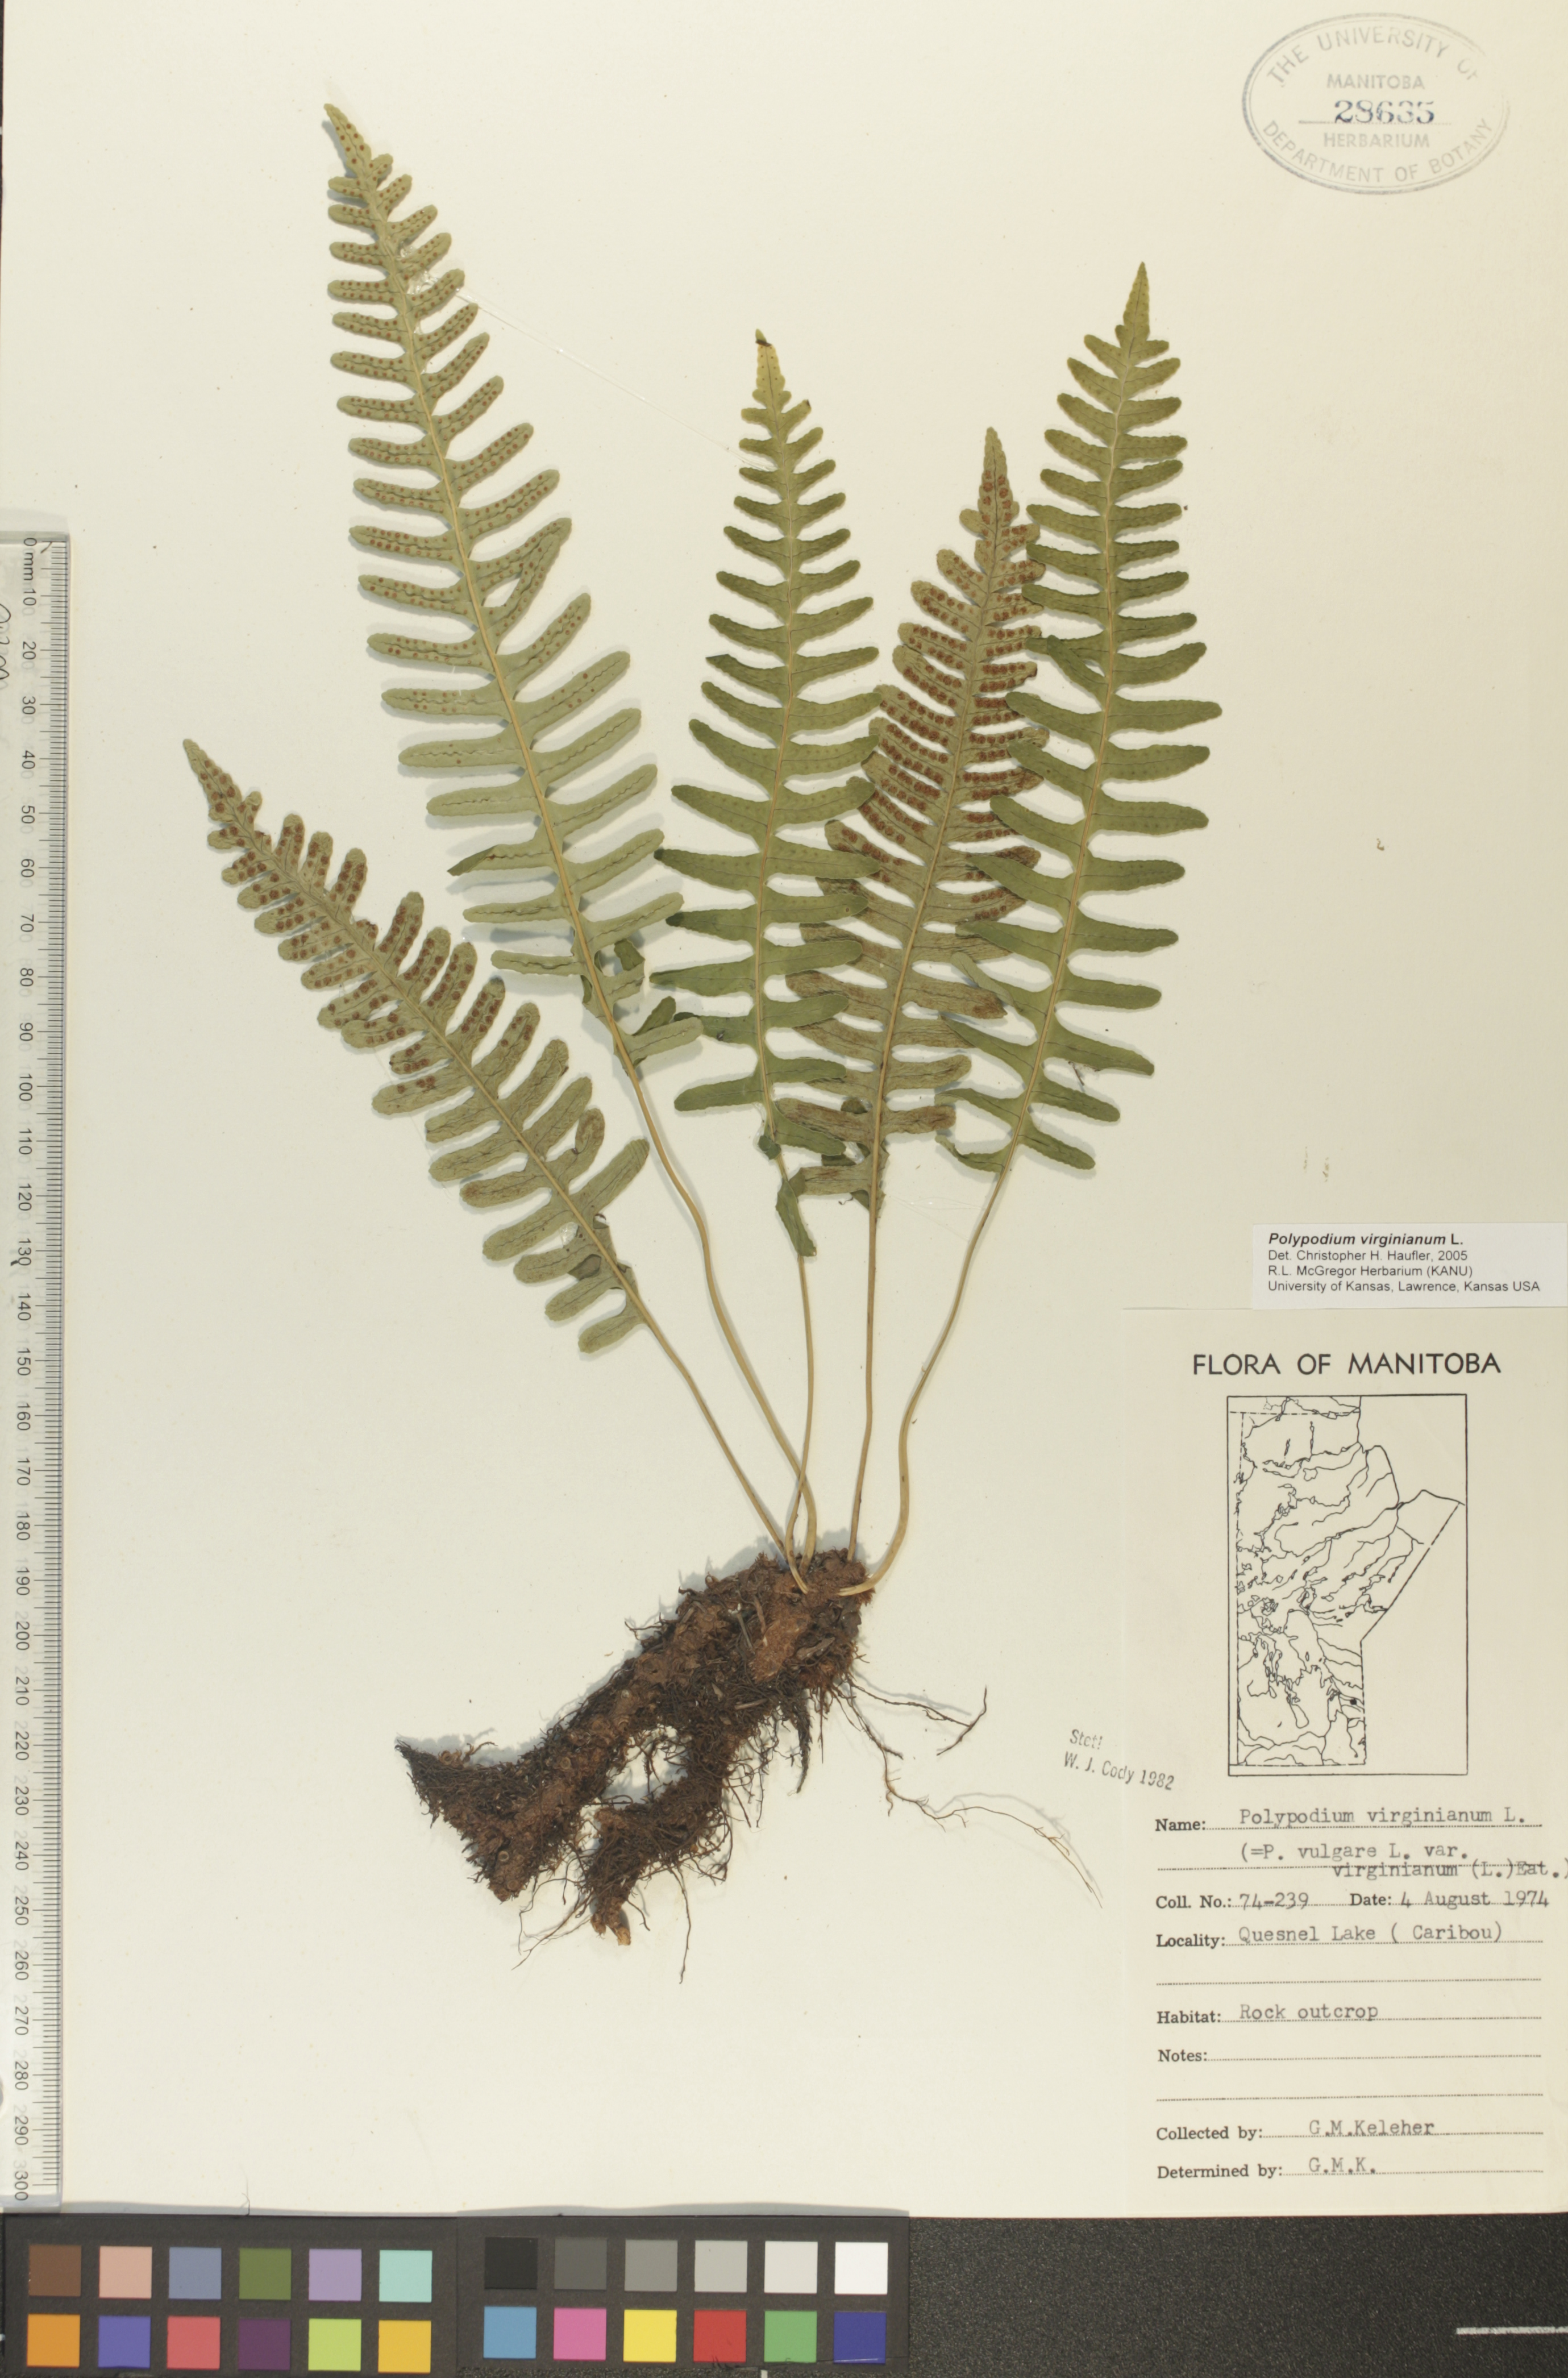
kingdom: Plantae
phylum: Tracheophyta
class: Polypodiopsida
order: Polypodiales
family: Polypodiaceae
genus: Polypodium
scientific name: Polypodium virginianum
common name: American wall fern
